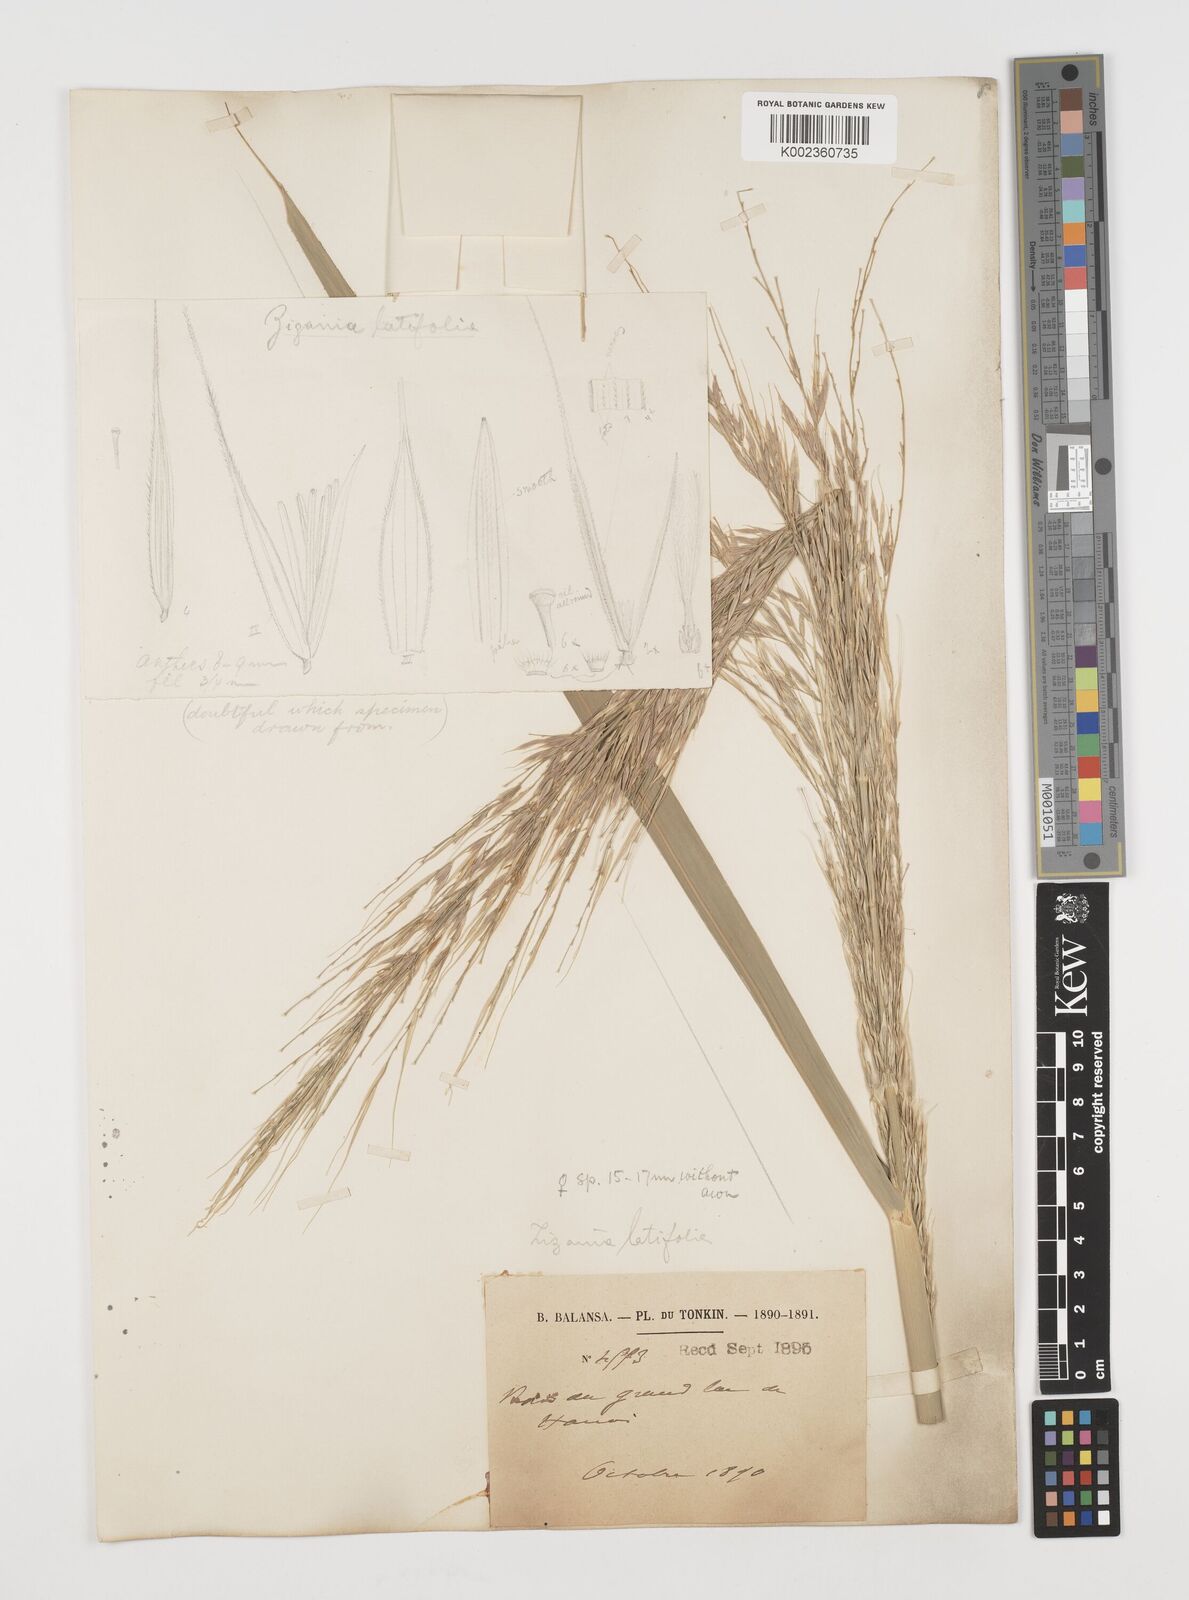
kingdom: Plantae
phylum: Tracheophyta
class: Liliopsida
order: Poales
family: Poaceae
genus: Zizania
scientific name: Zizania latifolia
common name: Manchurian wildrice
